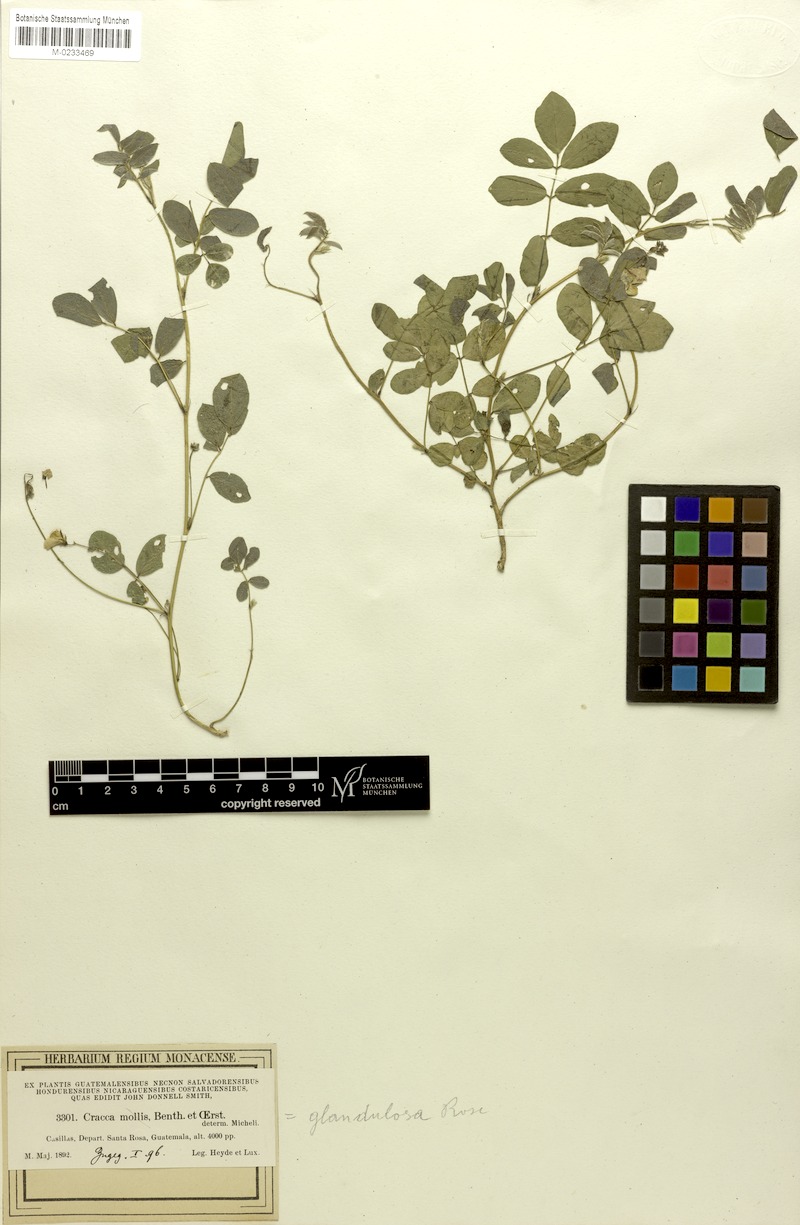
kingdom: Plantae
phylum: Tracheophyta
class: Magnoliopsida
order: Fabales
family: Fabaceae
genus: Coursetia
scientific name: Coursetia caribaea
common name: Anil falso
